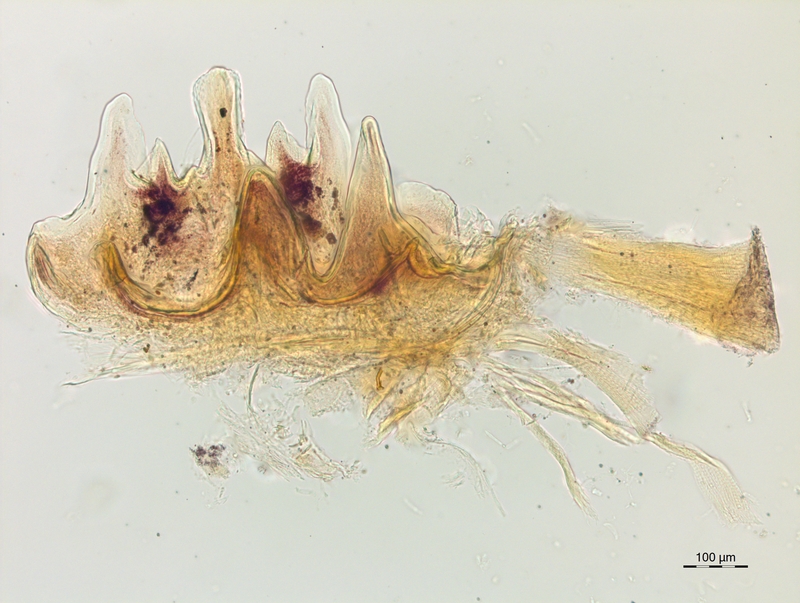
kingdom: Animalia
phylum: Arthropoda
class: Diplopoda
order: Chordeumatida
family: Craspedosomatidae
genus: Craspedosoma
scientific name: Craspedosoma alemannicum
